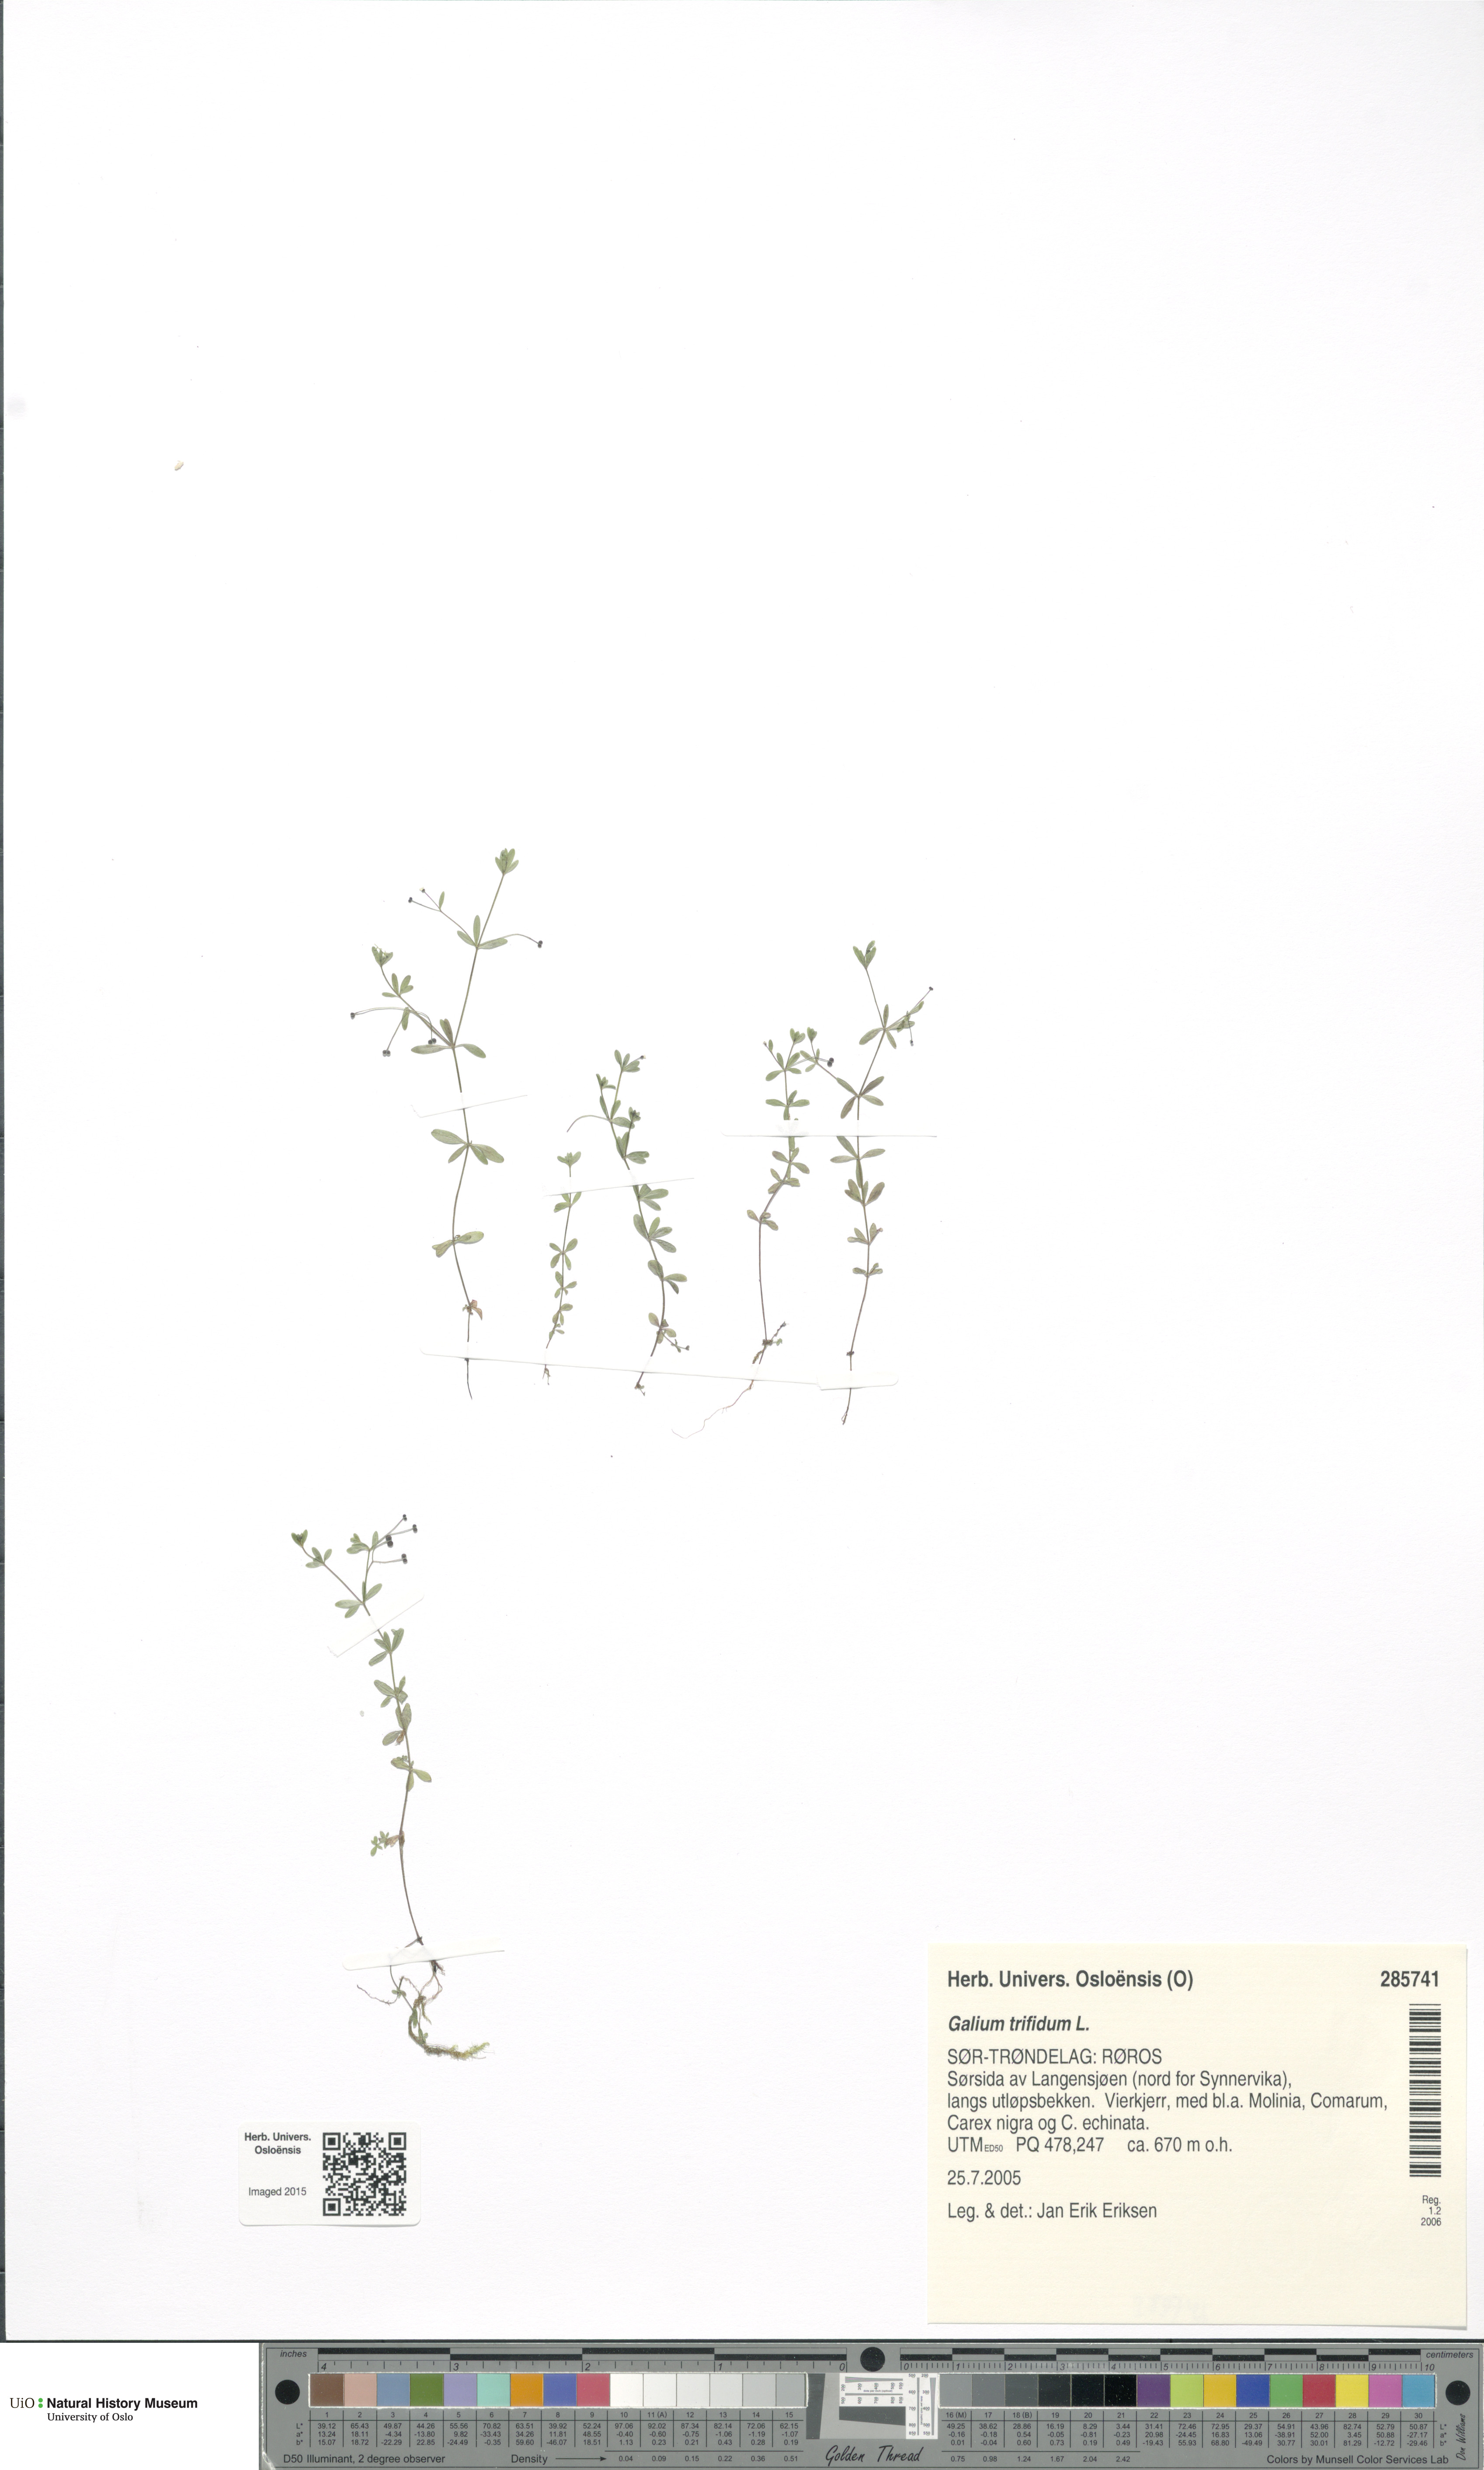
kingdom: Plantae
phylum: Tracheophyta
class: Magnoliopsida
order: Gentianales
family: Rubiaceae
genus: Galium
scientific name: Galium trifidum
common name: Small bedstraw
